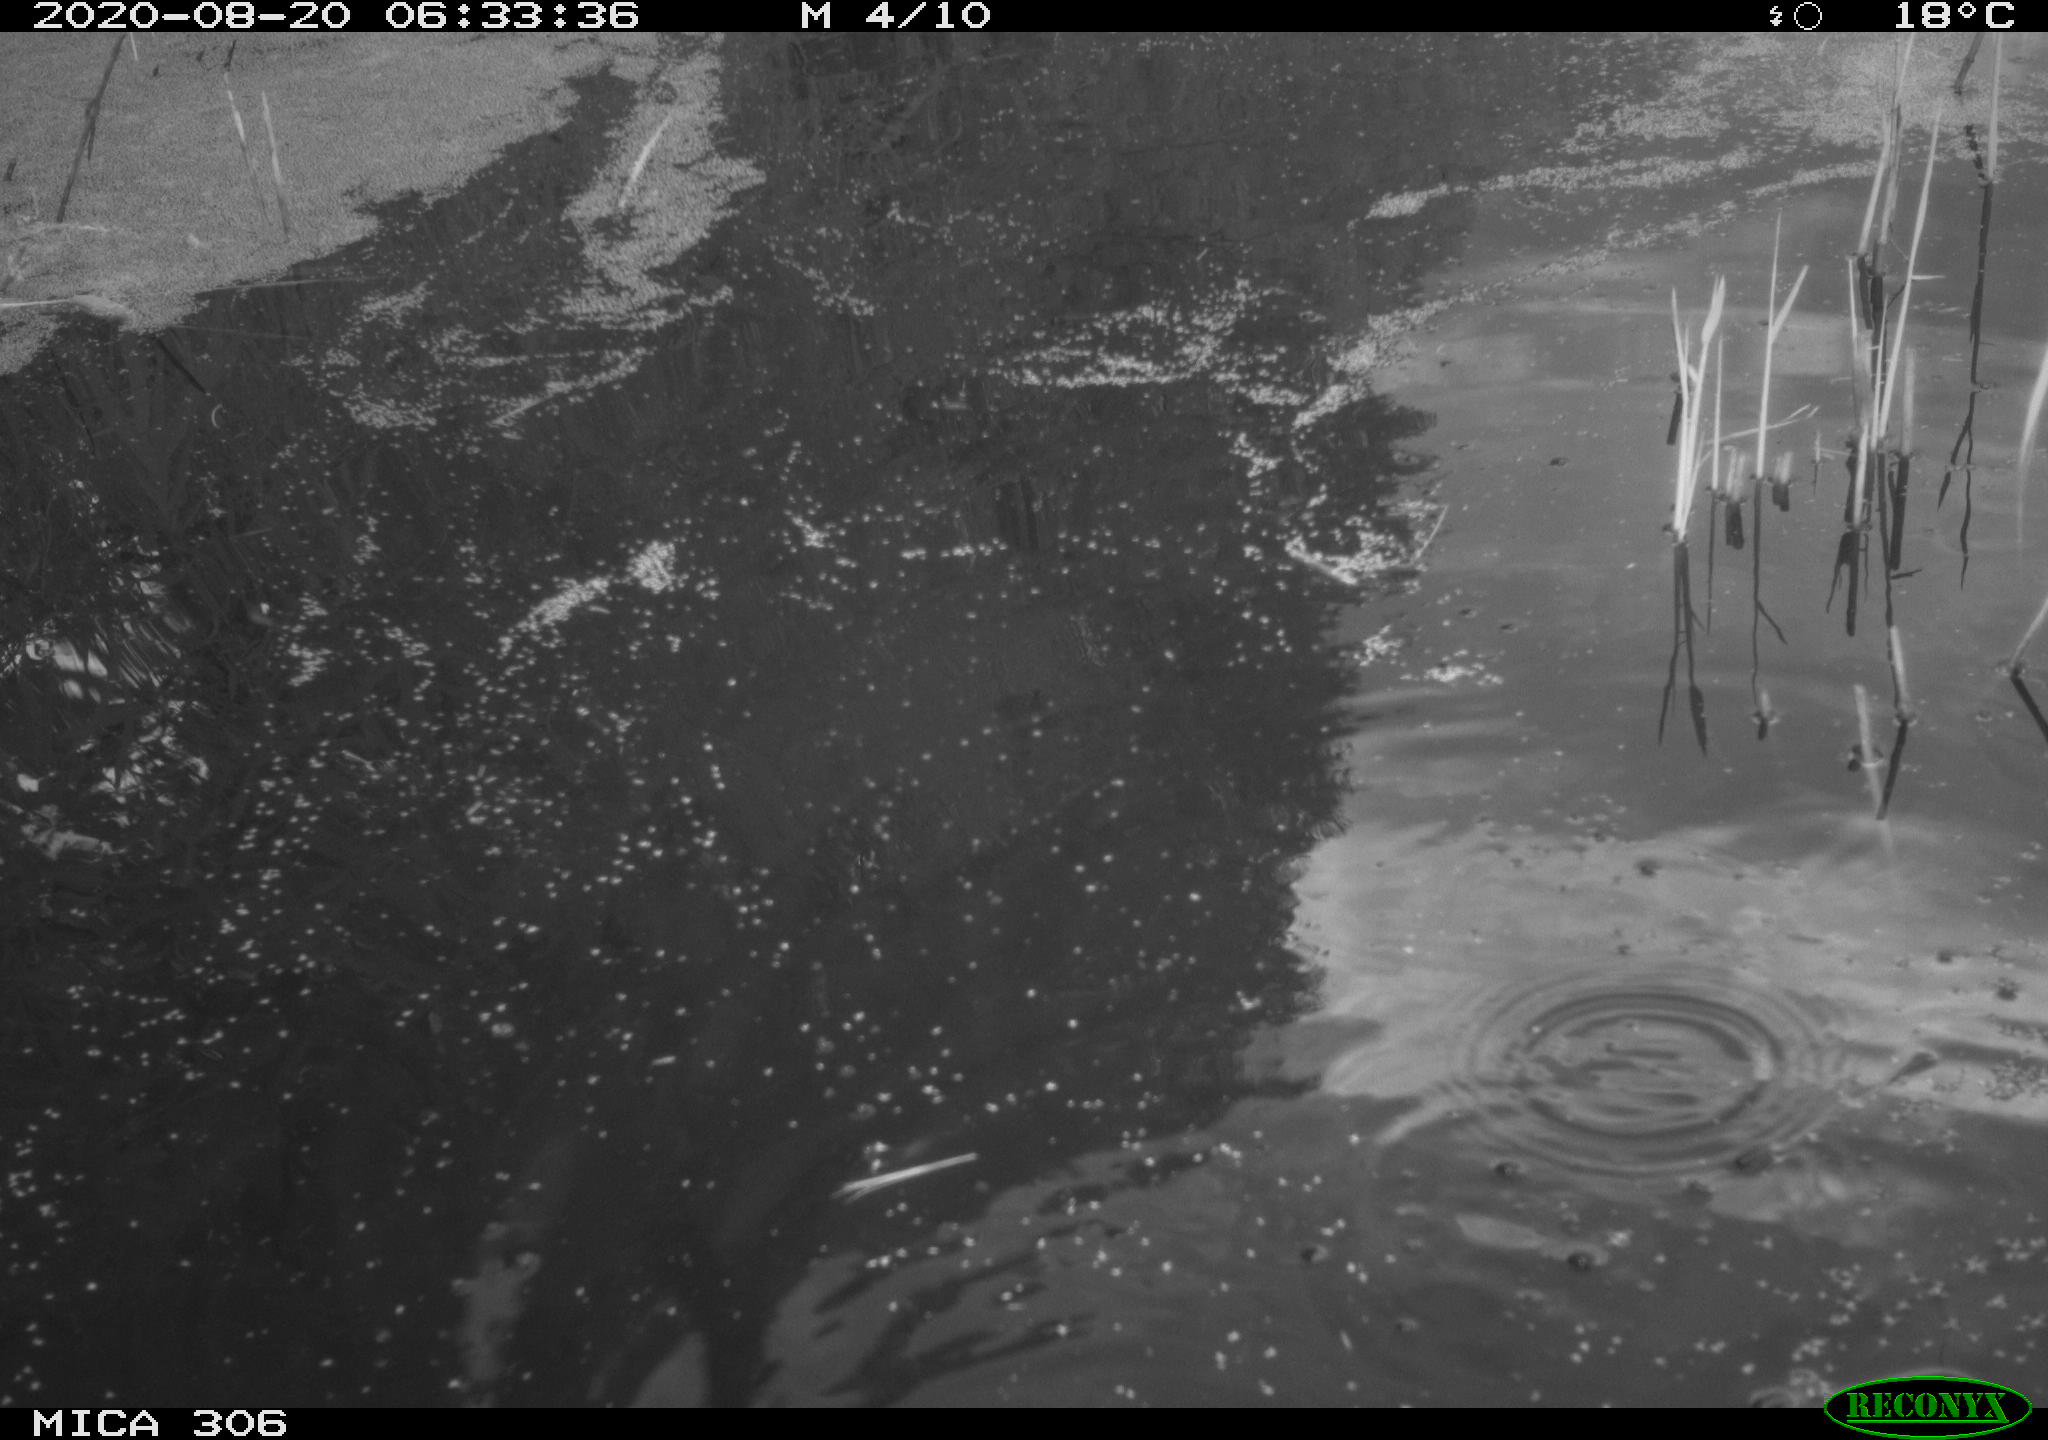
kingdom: Animalia
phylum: Chordata
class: Aves
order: Gruiformes
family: Rallidae
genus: Fulica
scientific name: Fulica atra
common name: Eurasian coot
